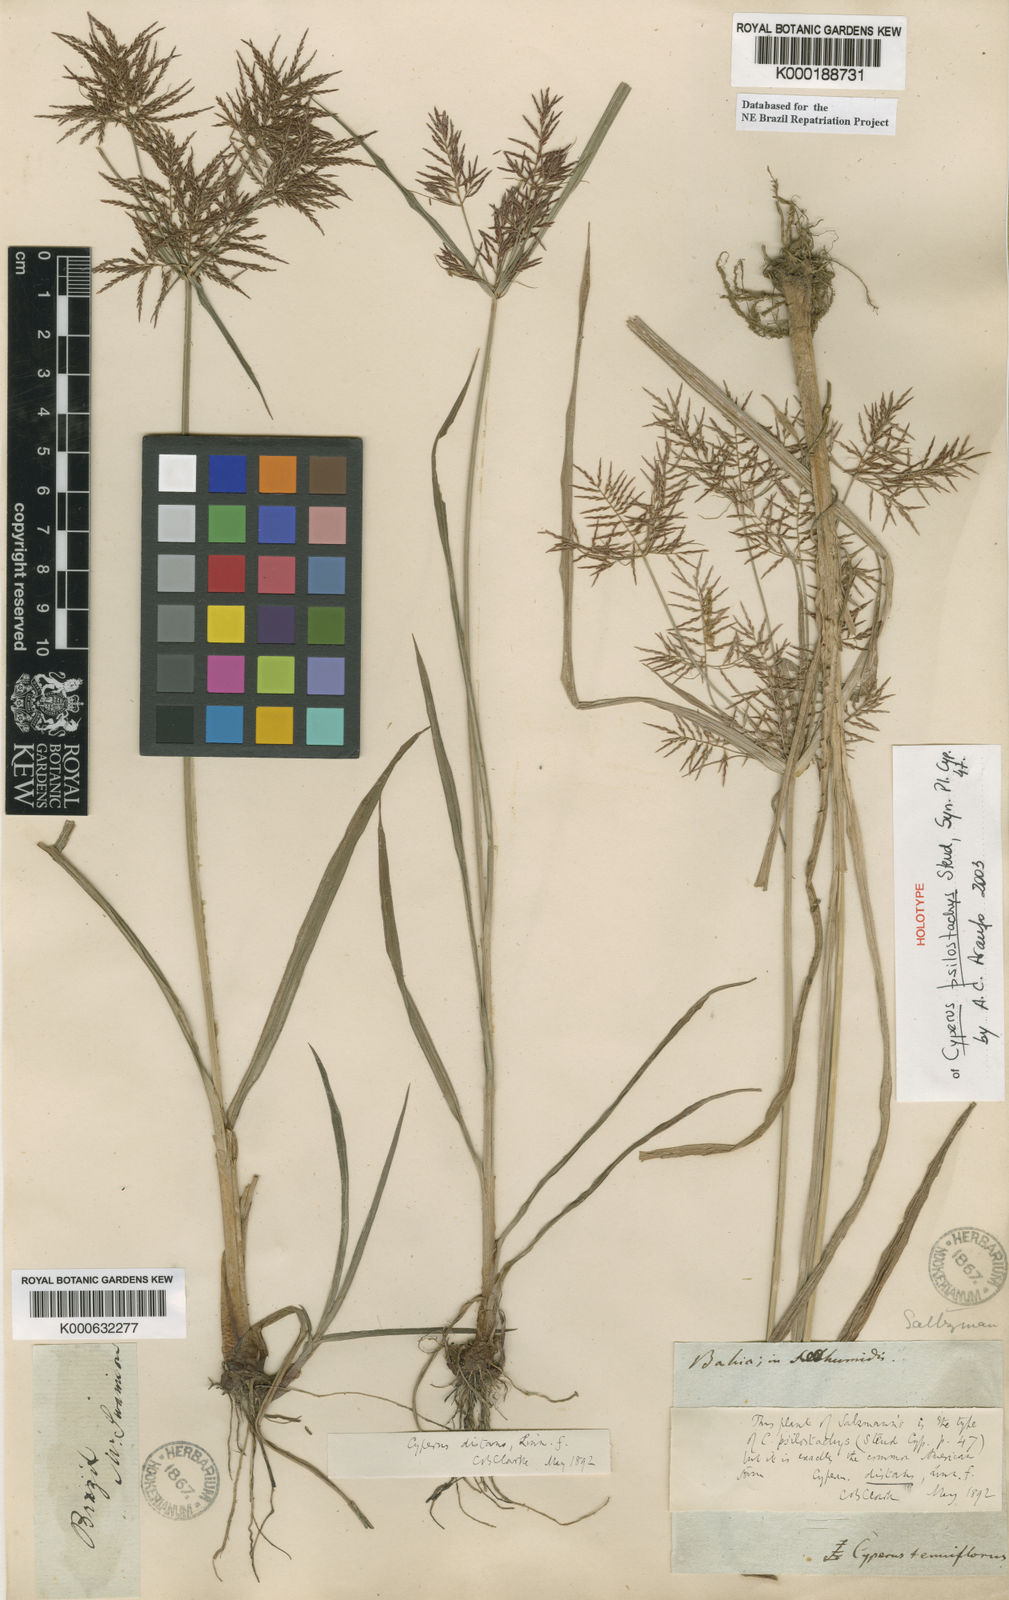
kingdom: Plantae
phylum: Tracheophyta
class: Liliopsida
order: Poales
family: Cyperaceae
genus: Cyperus
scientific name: Cyperus distans
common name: Slender cyperus
